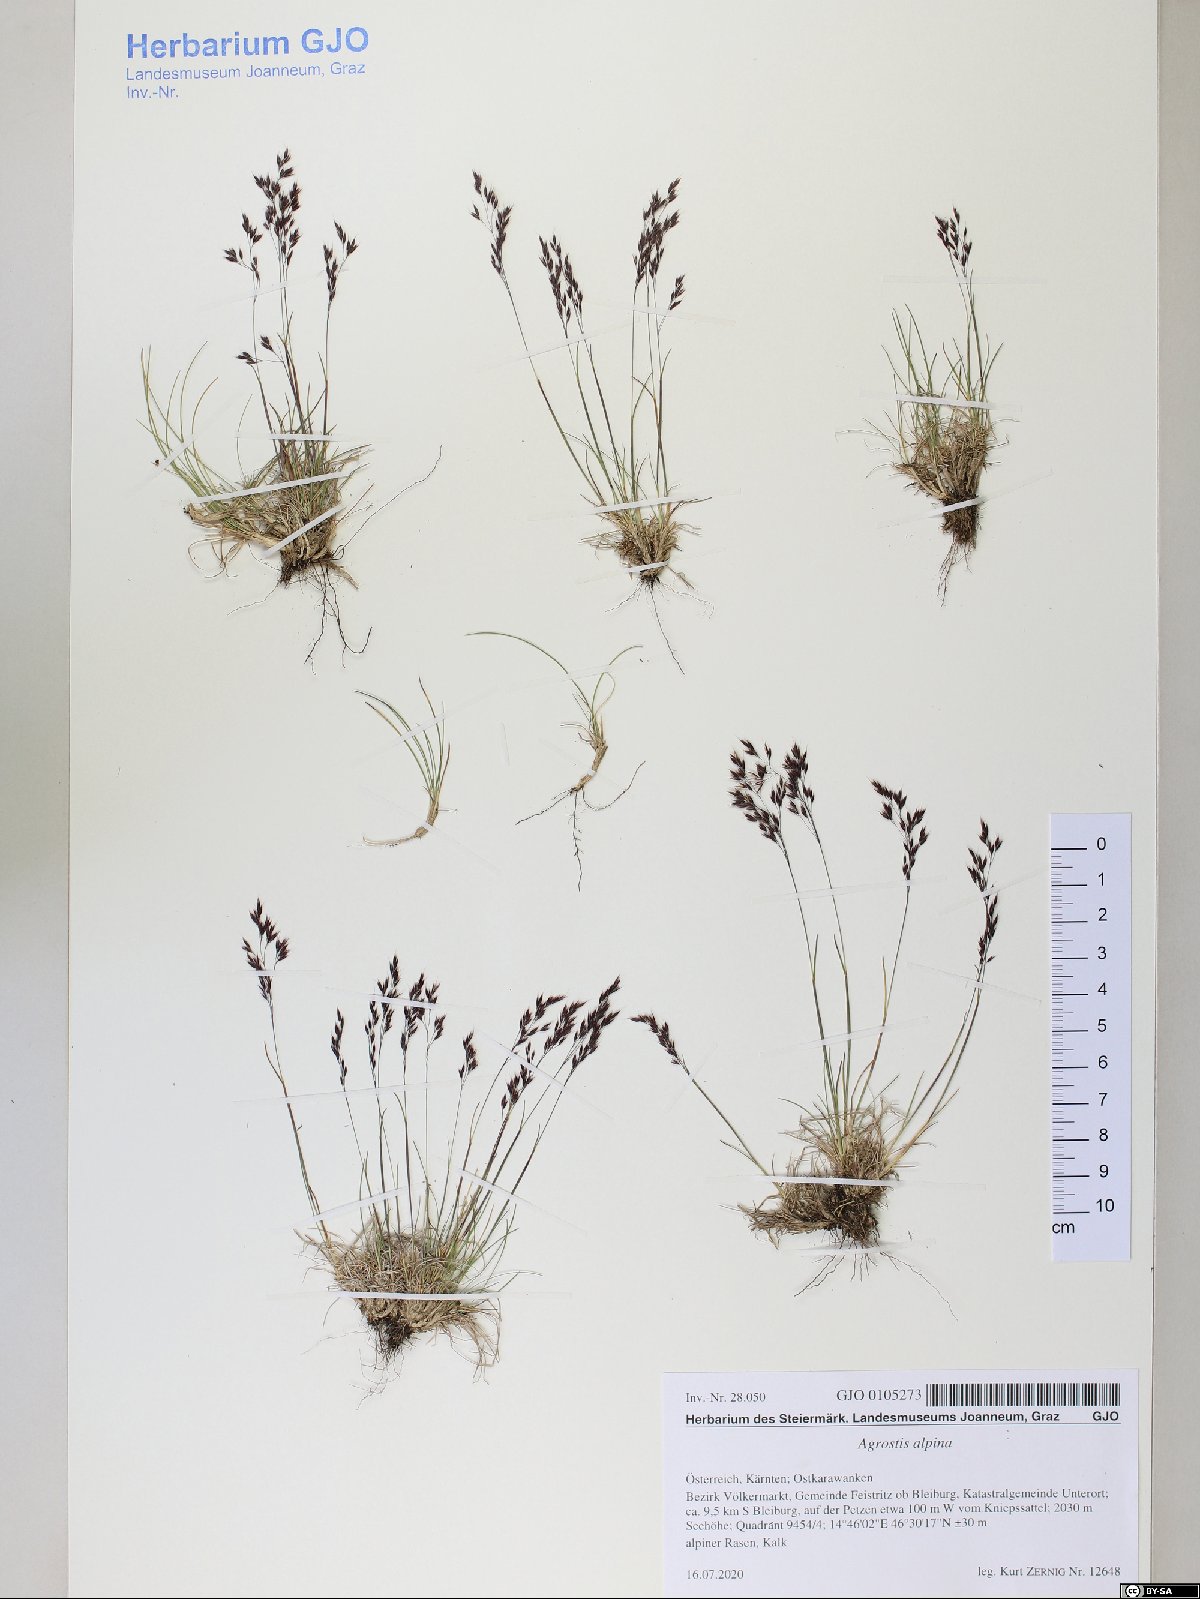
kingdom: Plantae
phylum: Tracheophyta
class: Liliopsida
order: Poales
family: Poaceae
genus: Alpagrostis
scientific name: Alpagrostis alpina
